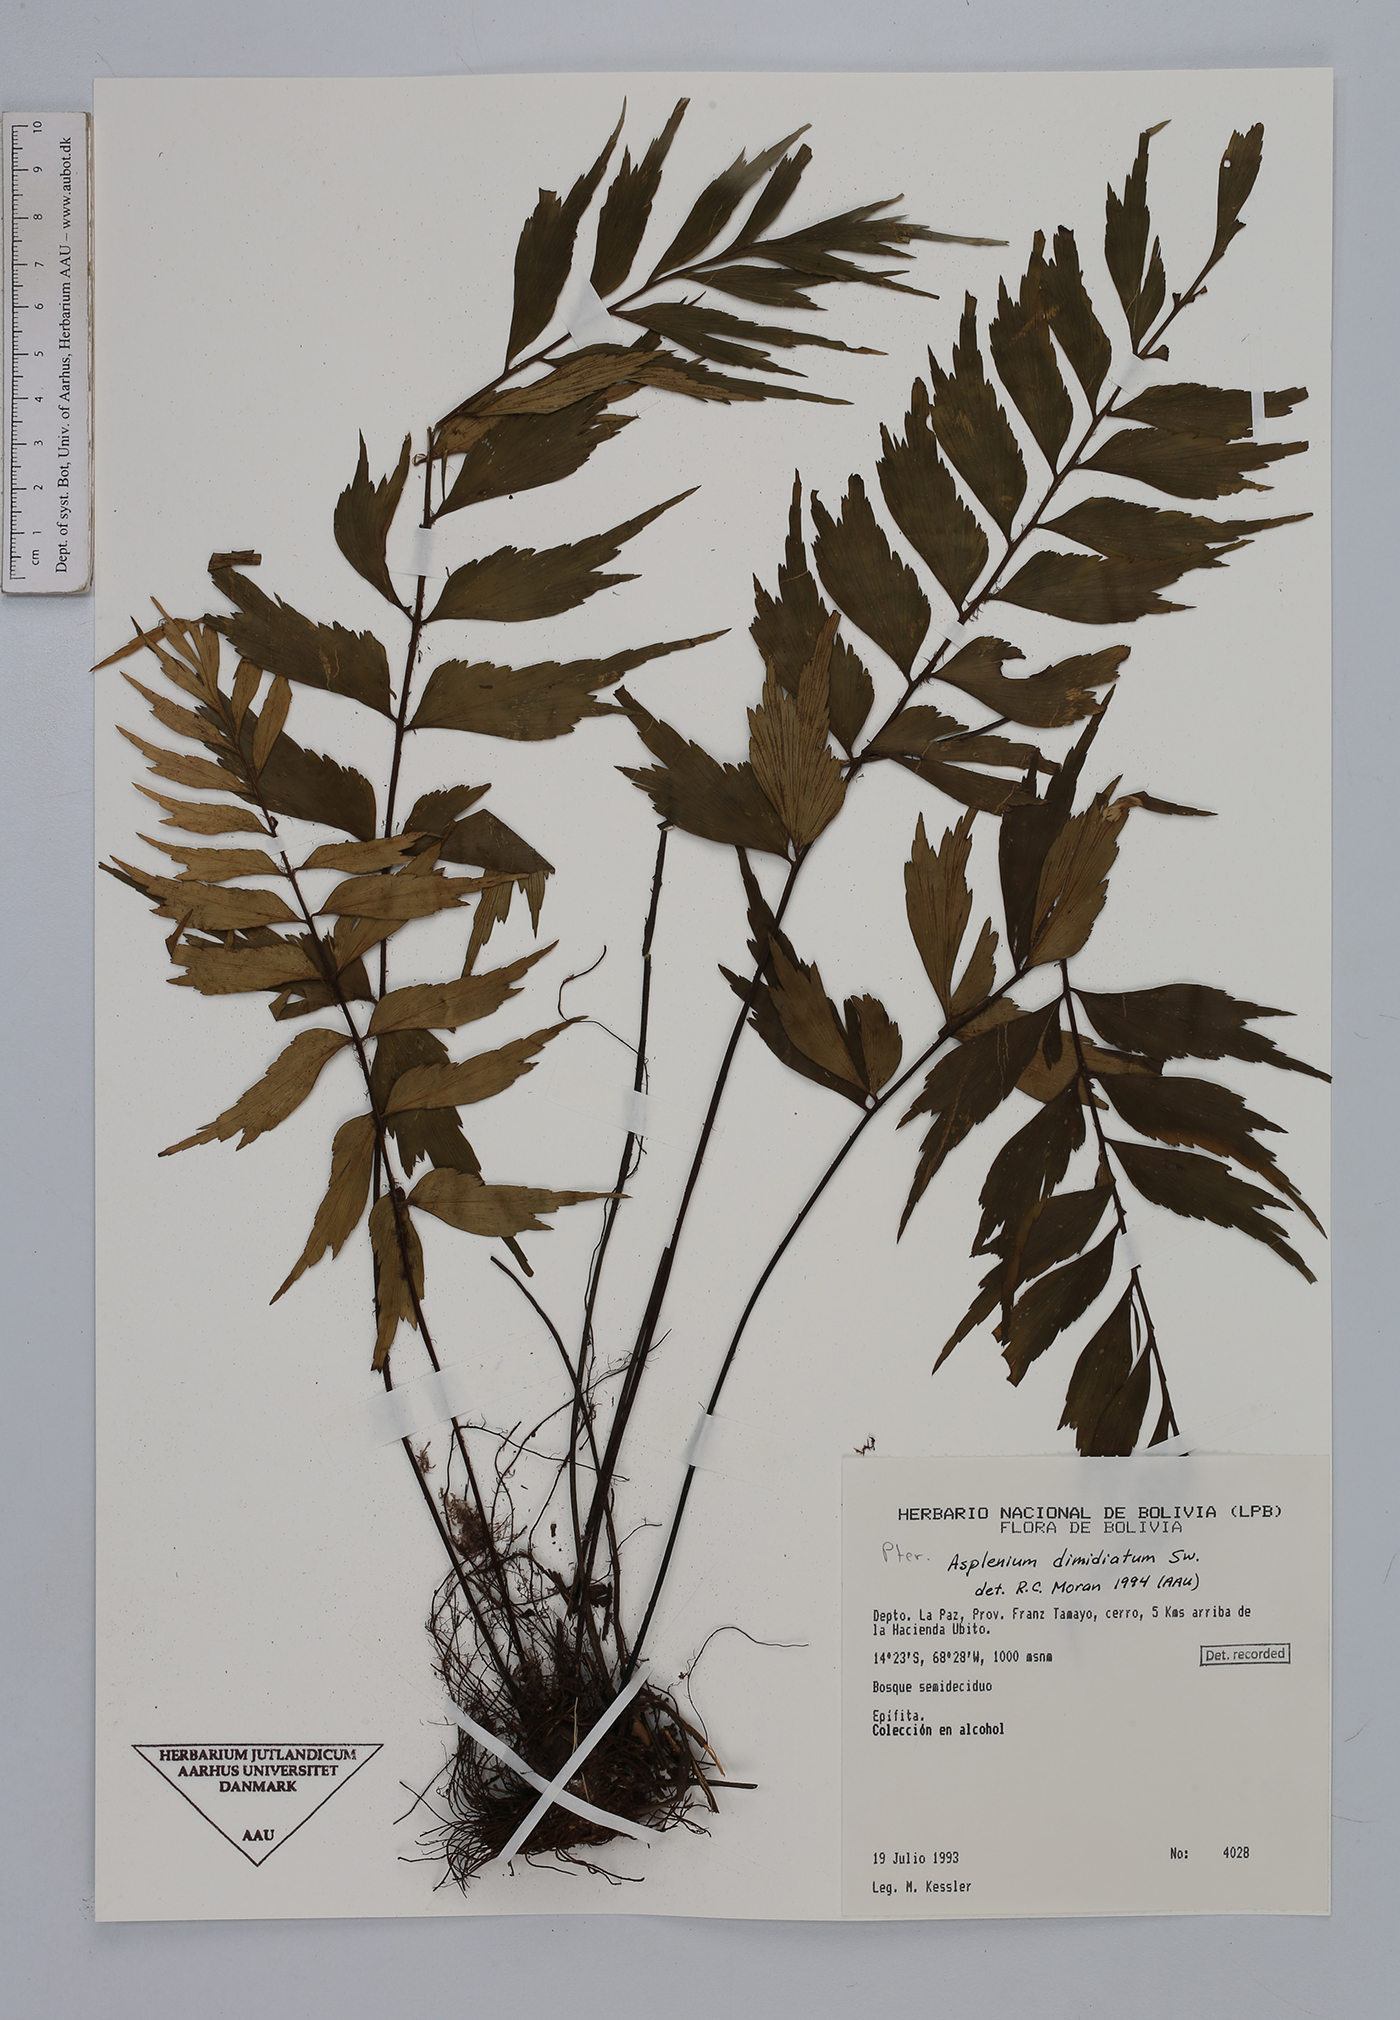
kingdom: Plantae
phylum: Tracheophyta
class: Polypodiopsida
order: Polypodiales
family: Aspleniaceae
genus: Asplenium
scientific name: Asplenium dimidiatum
